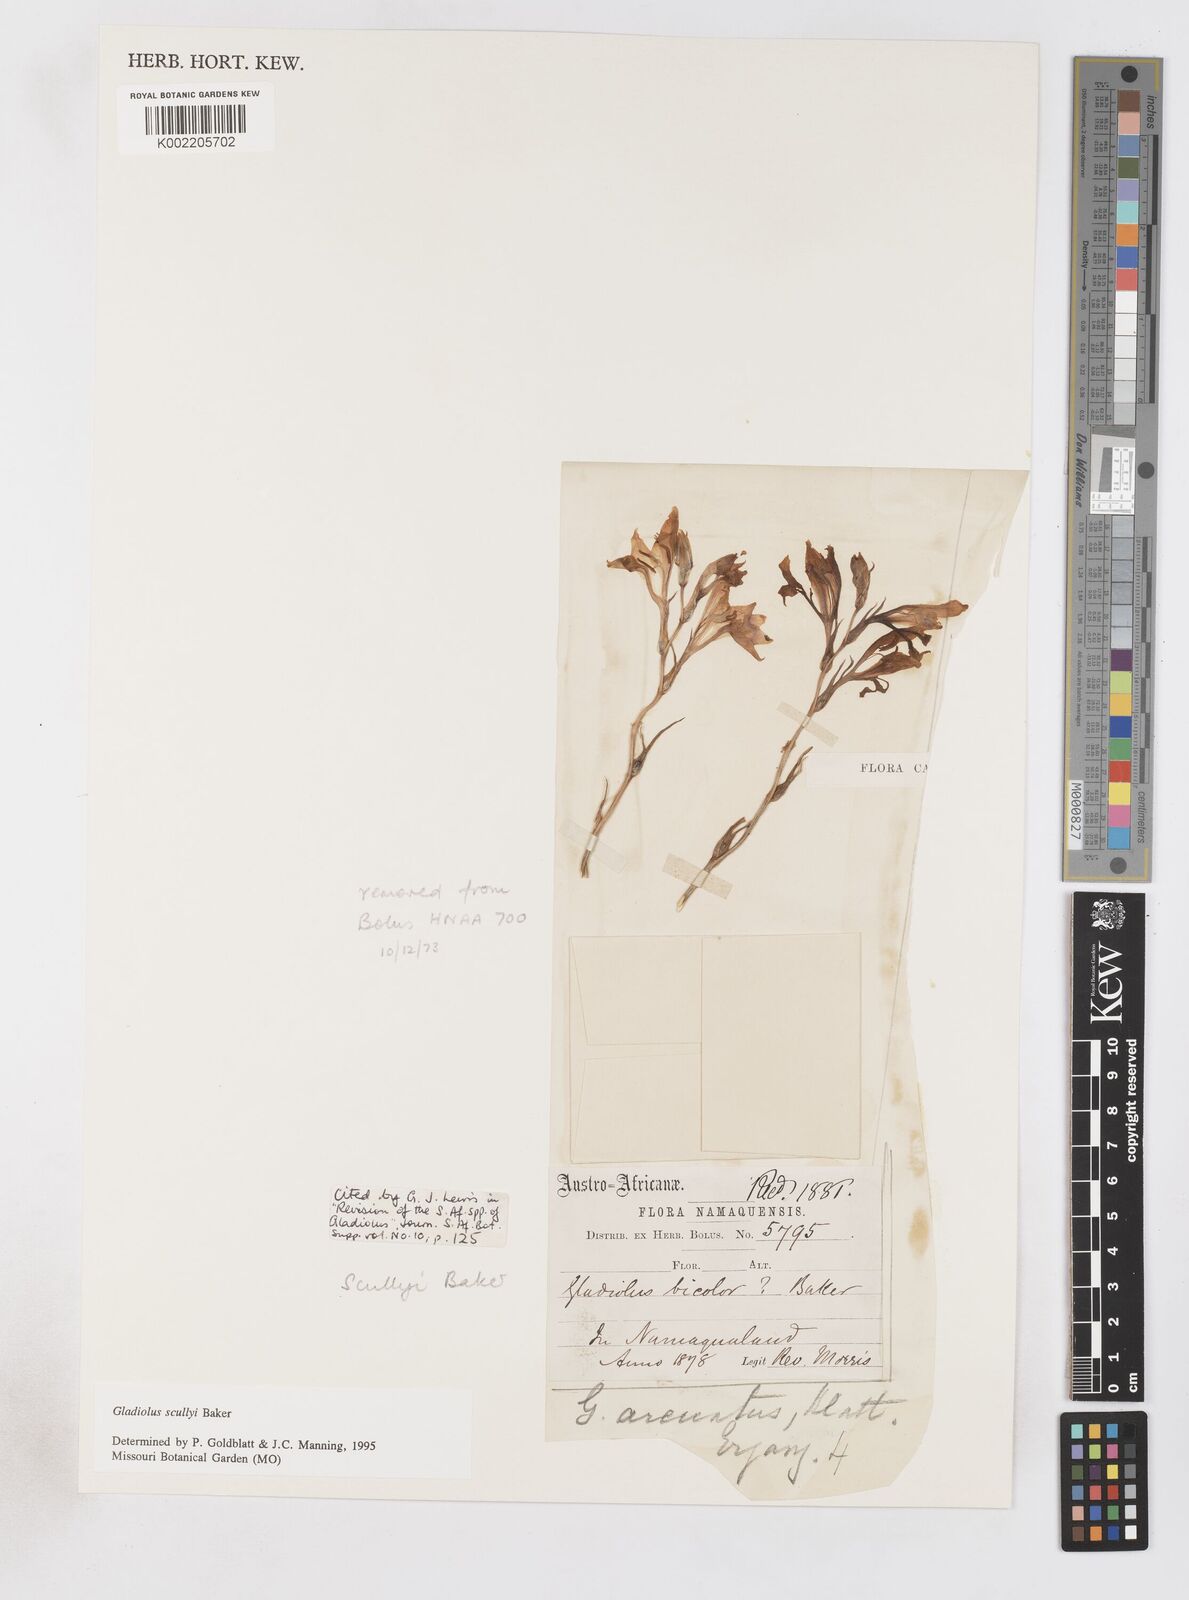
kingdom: Plantae
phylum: Tracheophyta
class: Liliopsida
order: Asparagales
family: Iridaceae
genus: Gladiolus
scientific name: Gladiolus scullyi
